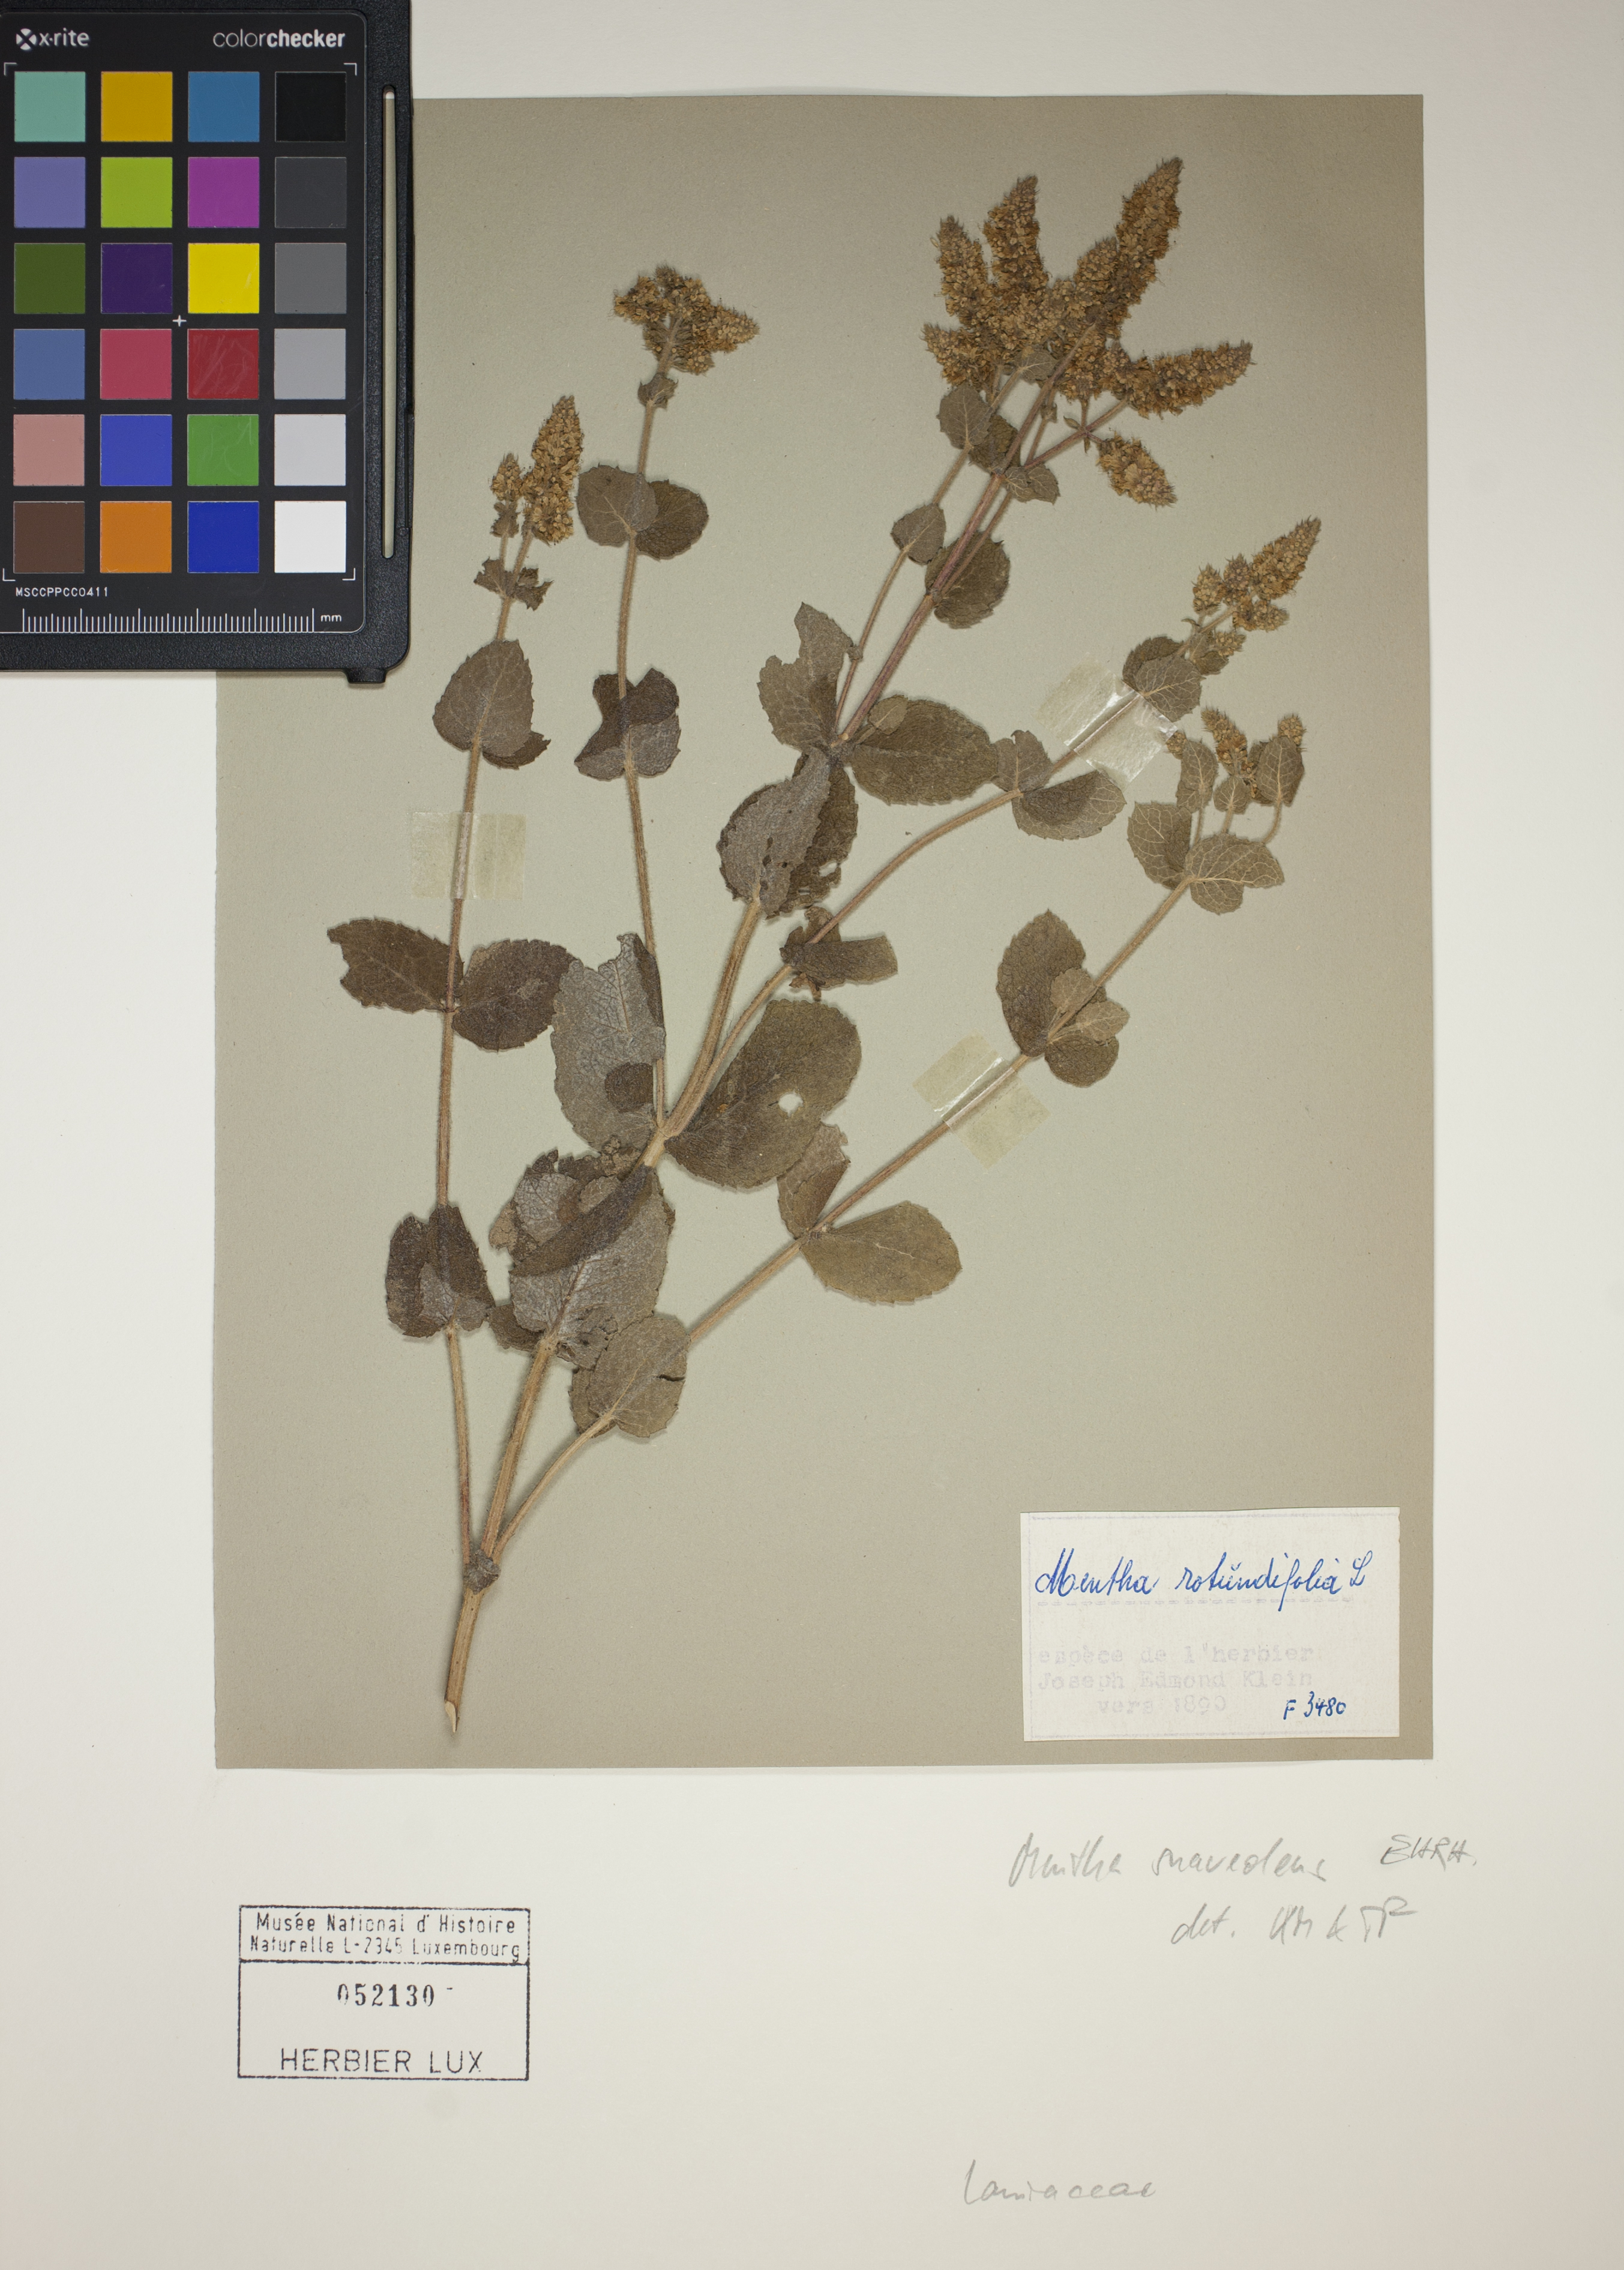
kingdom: Plantae
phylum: Tracheophyta
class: Magnoliopsida
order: Lamiales
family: Lamiaceae
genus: Mentha
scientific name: Mentha suaveolens
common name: Apple mint
